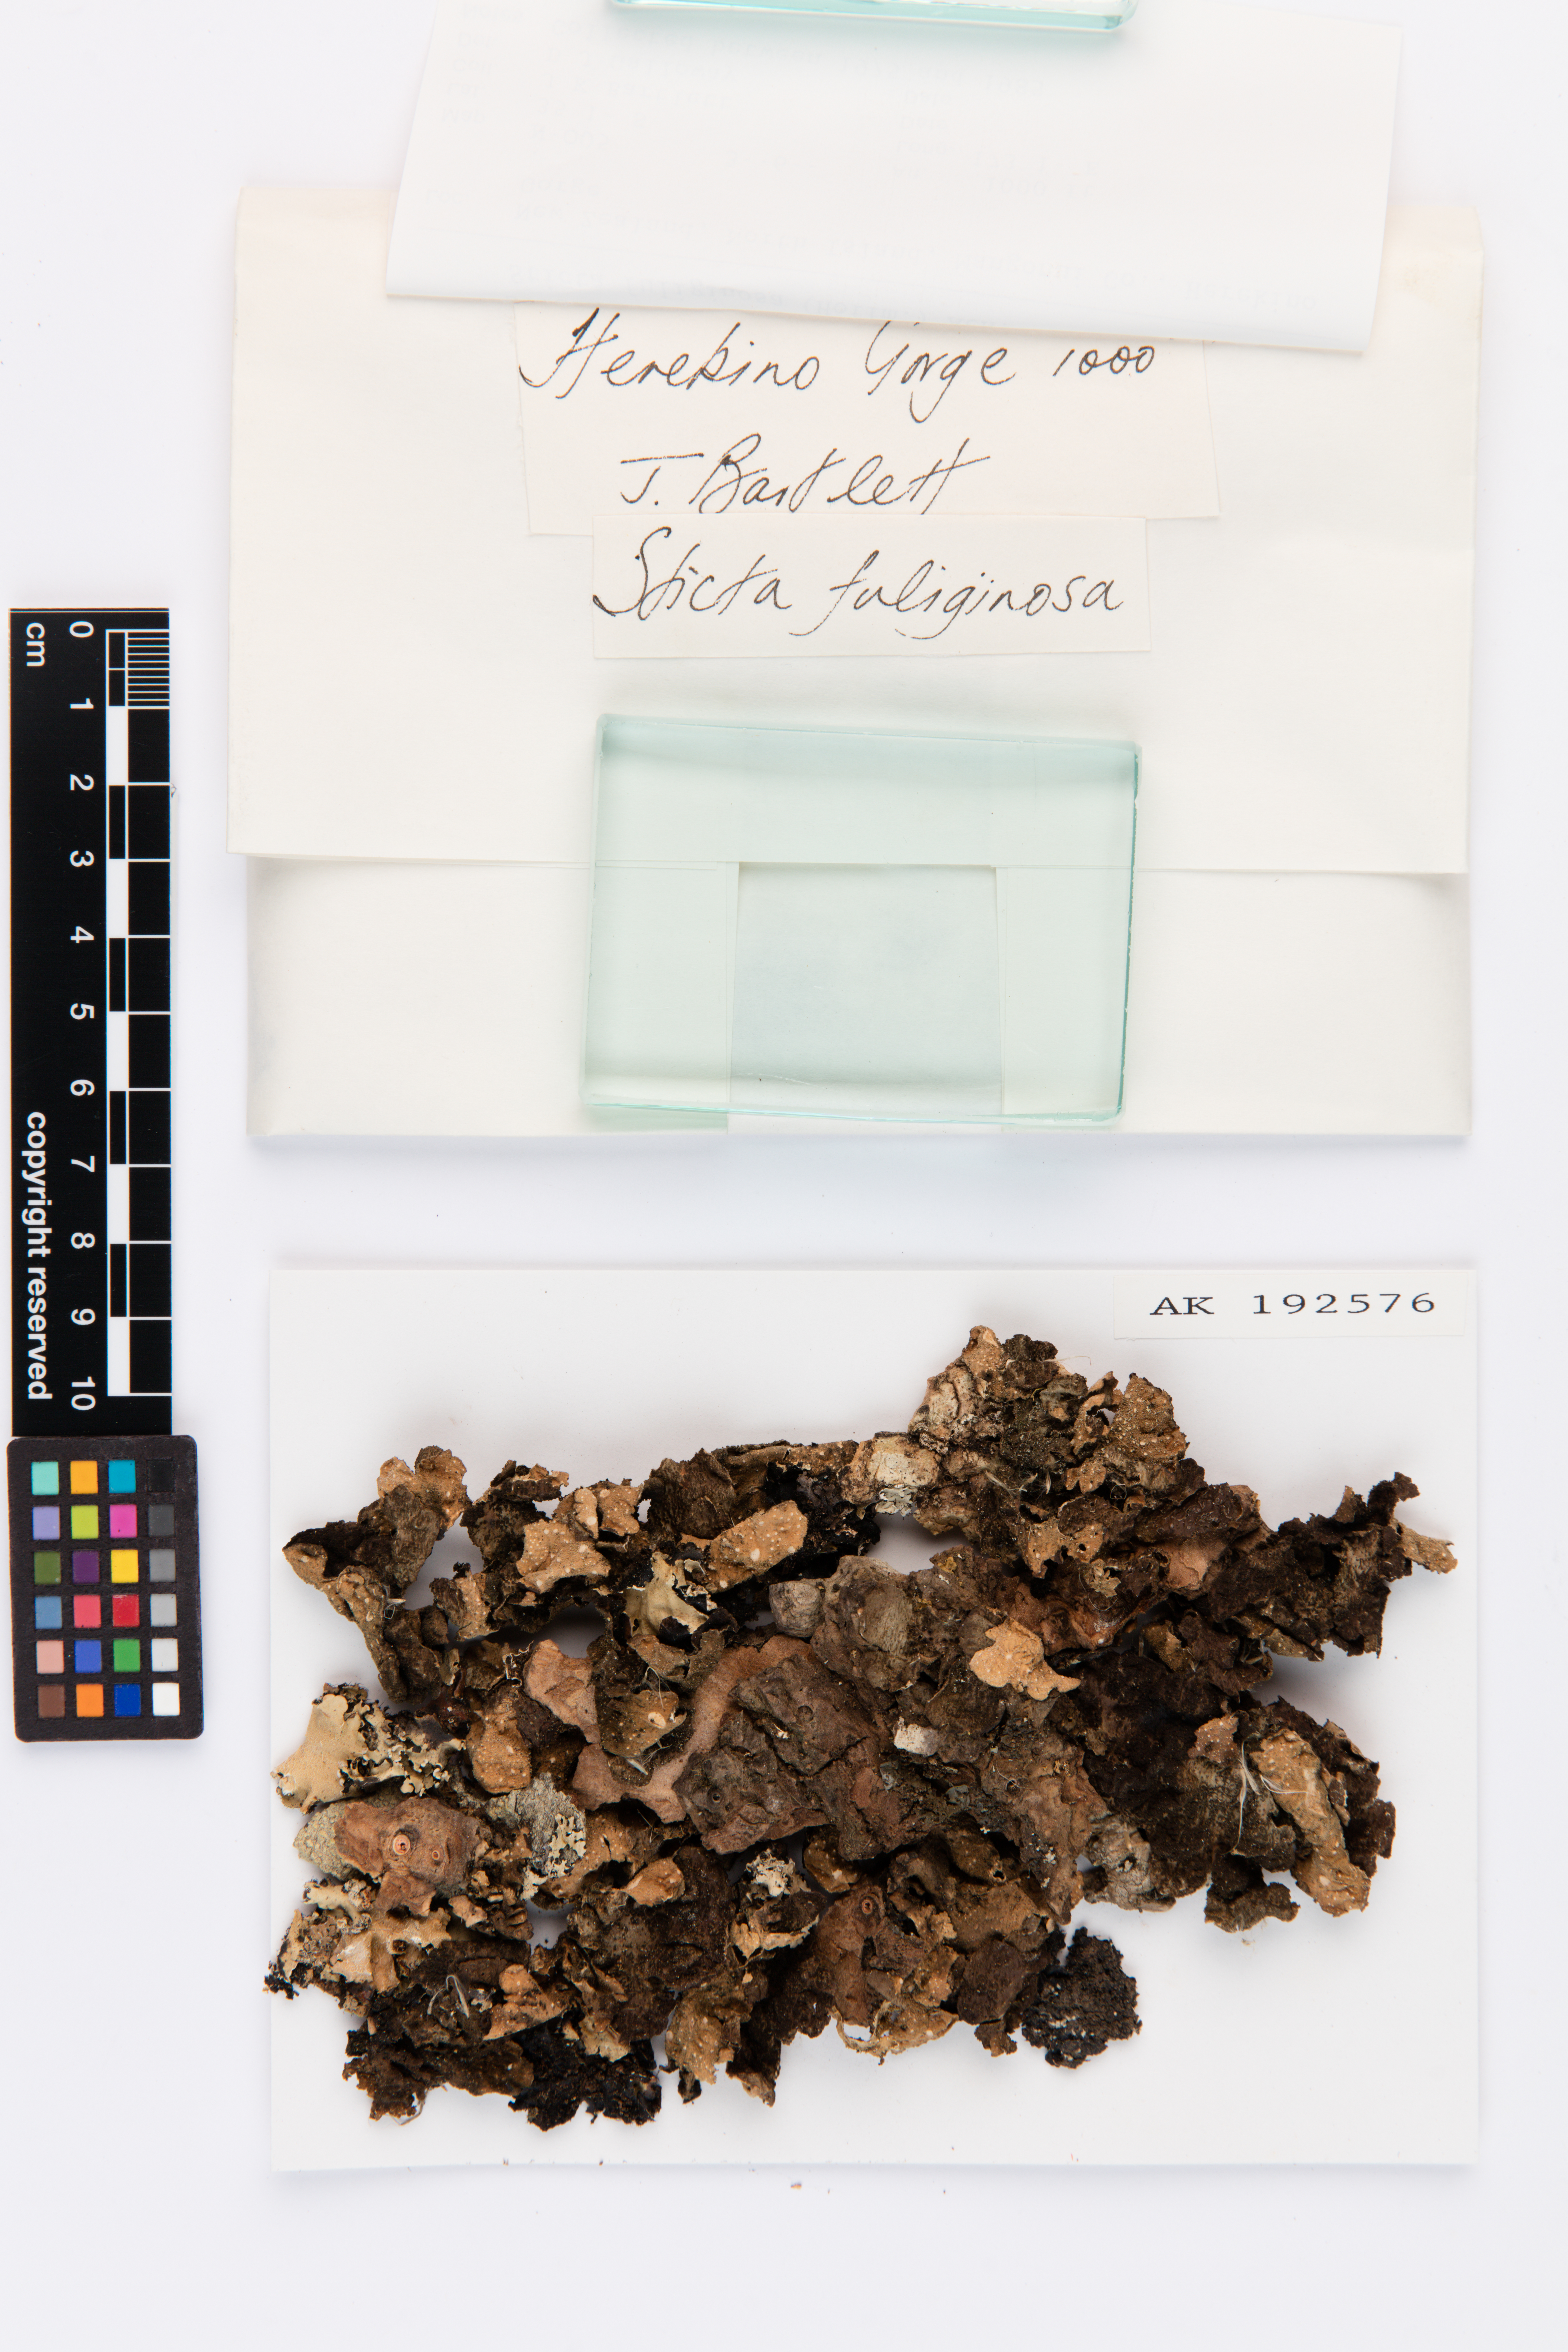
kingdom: Fungi
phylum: Ascomycota
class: Lecanoromycetes
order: Peltigerales
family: Lobariaceae
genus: Sticta
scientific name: Sticta fuliginosa
